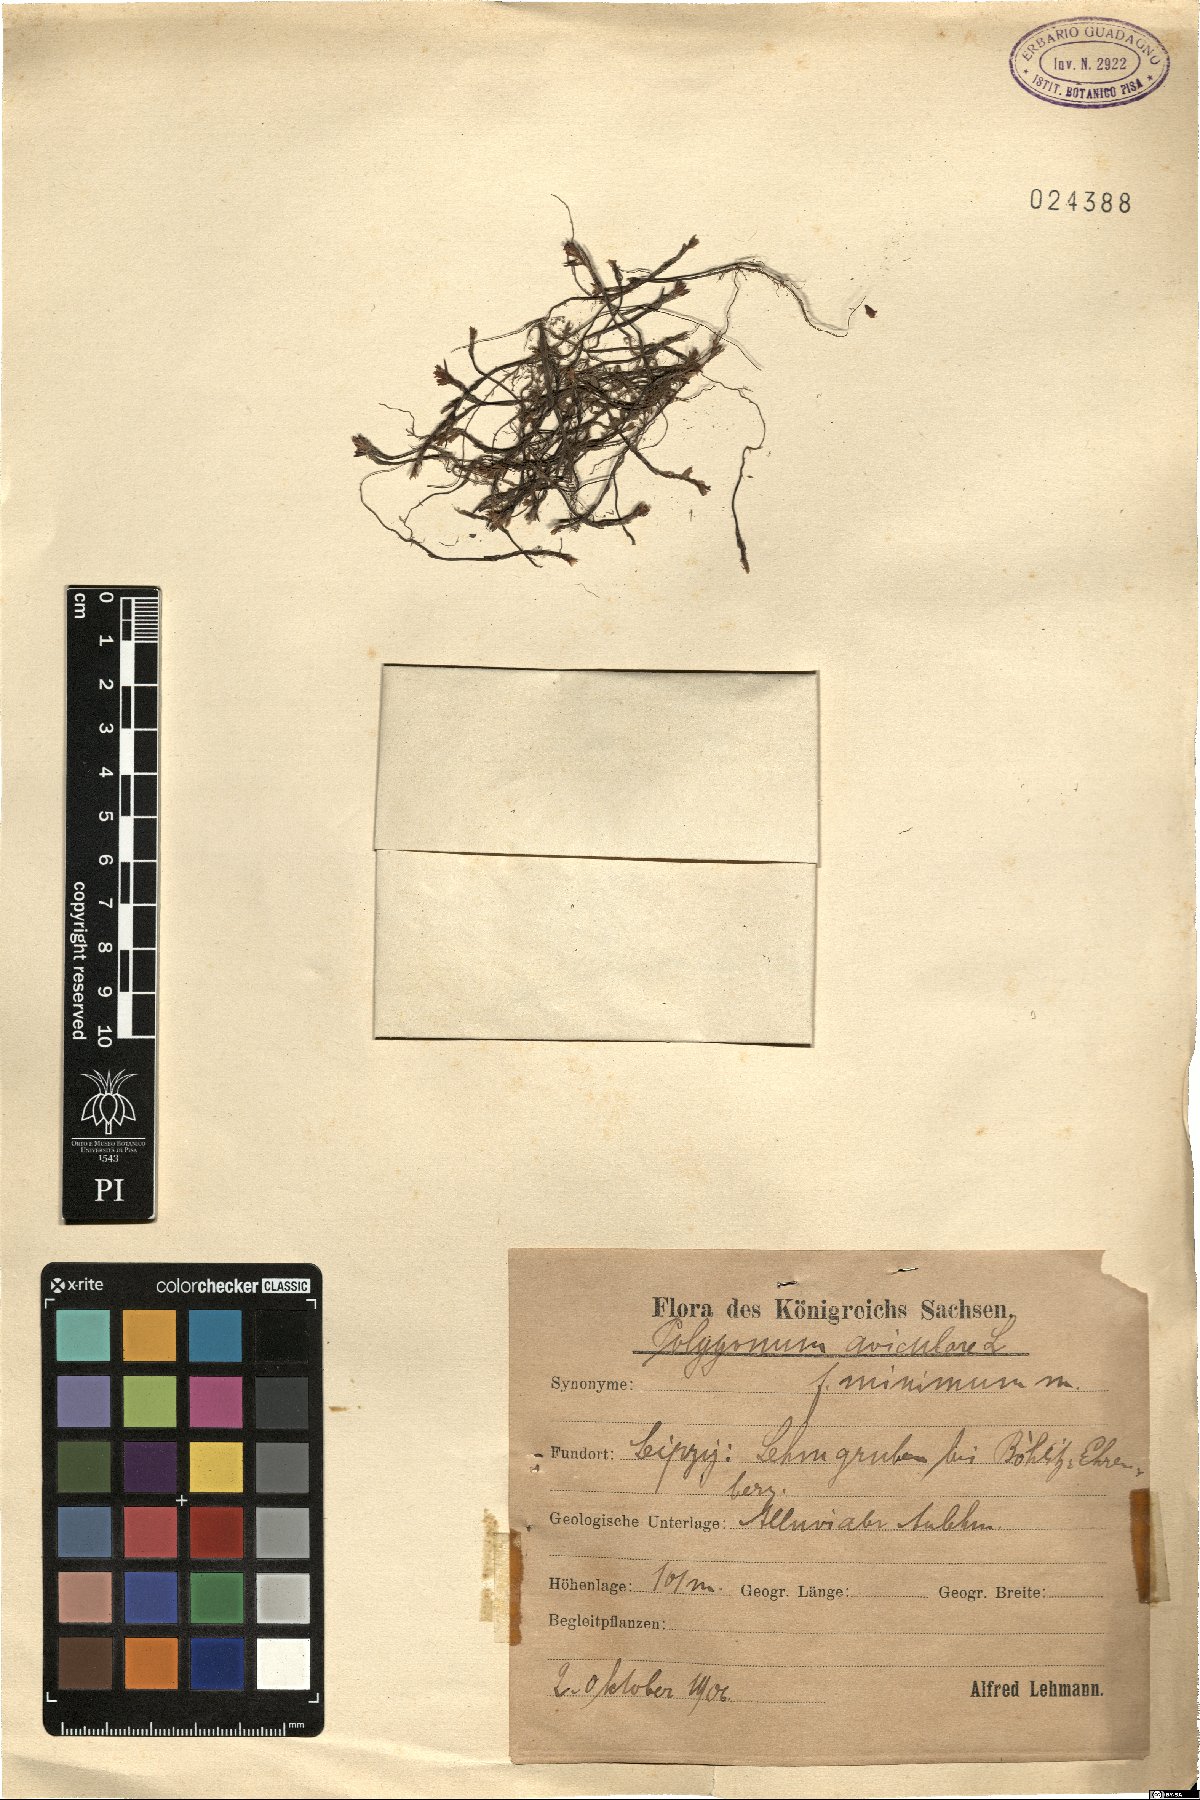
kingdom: Plantae
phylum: Tracheophyta
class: Magnoliopsida
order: Caryophyllales
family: Polygonaceae
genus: Polygonum
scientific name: Polygonum aviculare
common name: Prostrate knotweed
